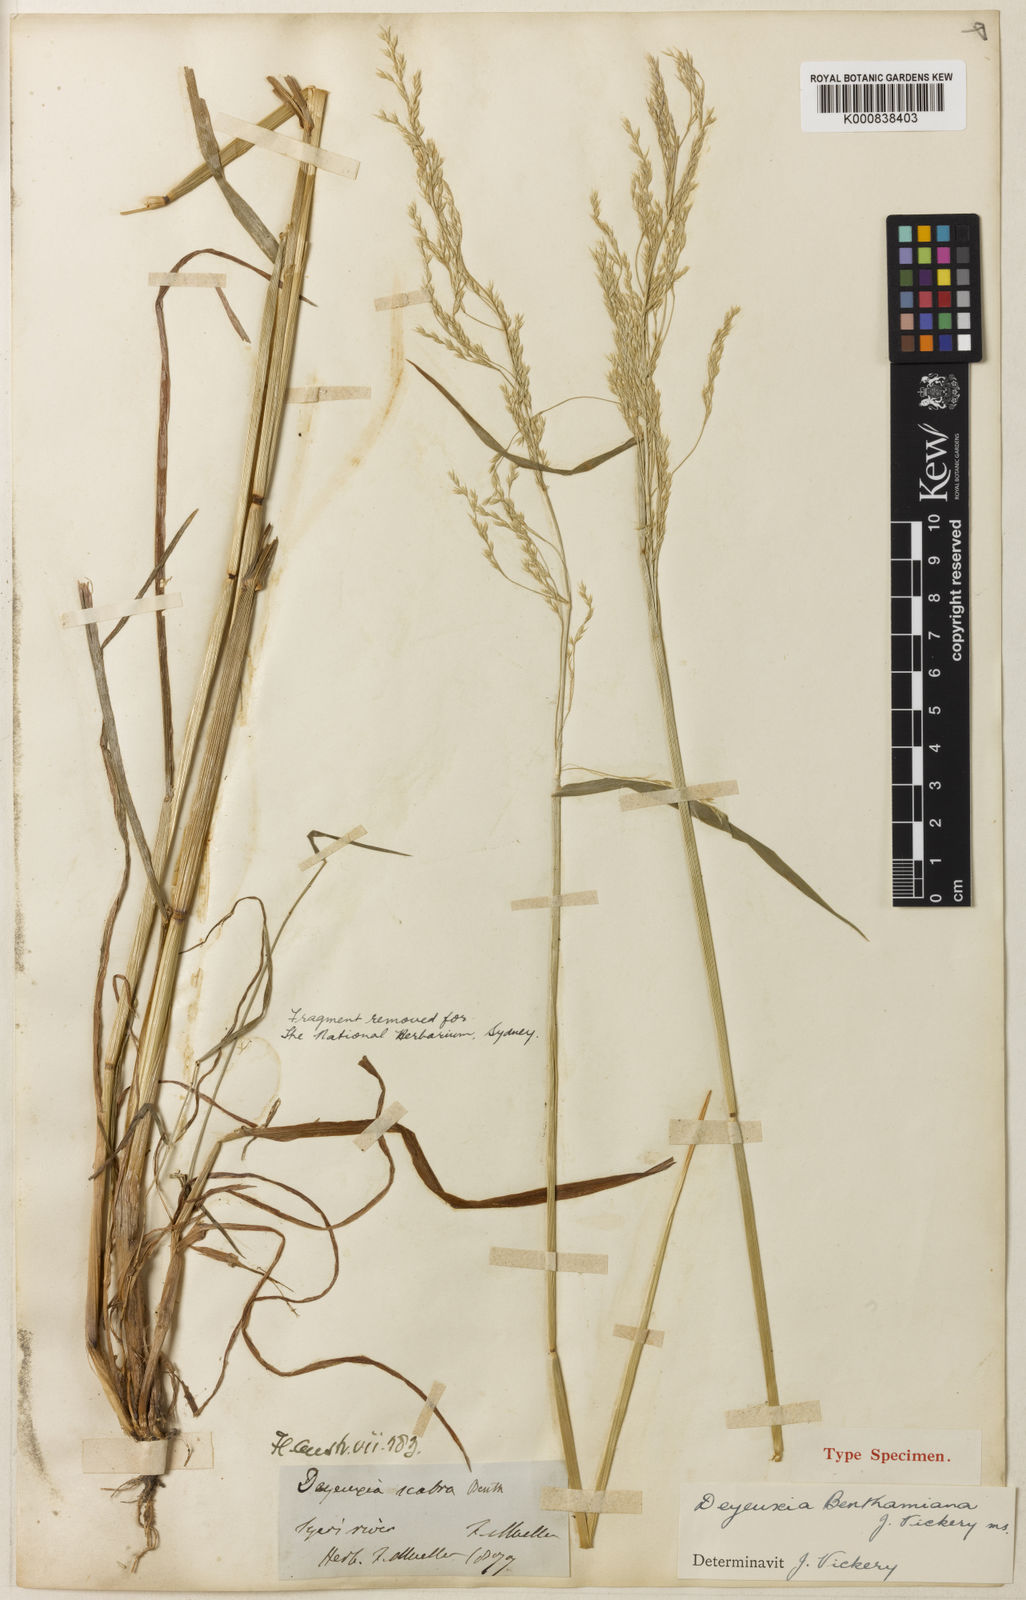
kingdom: Plantae
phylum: Tracheophyta
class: Liliopsida
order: Poales
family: Poaceae
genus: Calamagrostis
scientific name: Calamagrostis benthamiana
